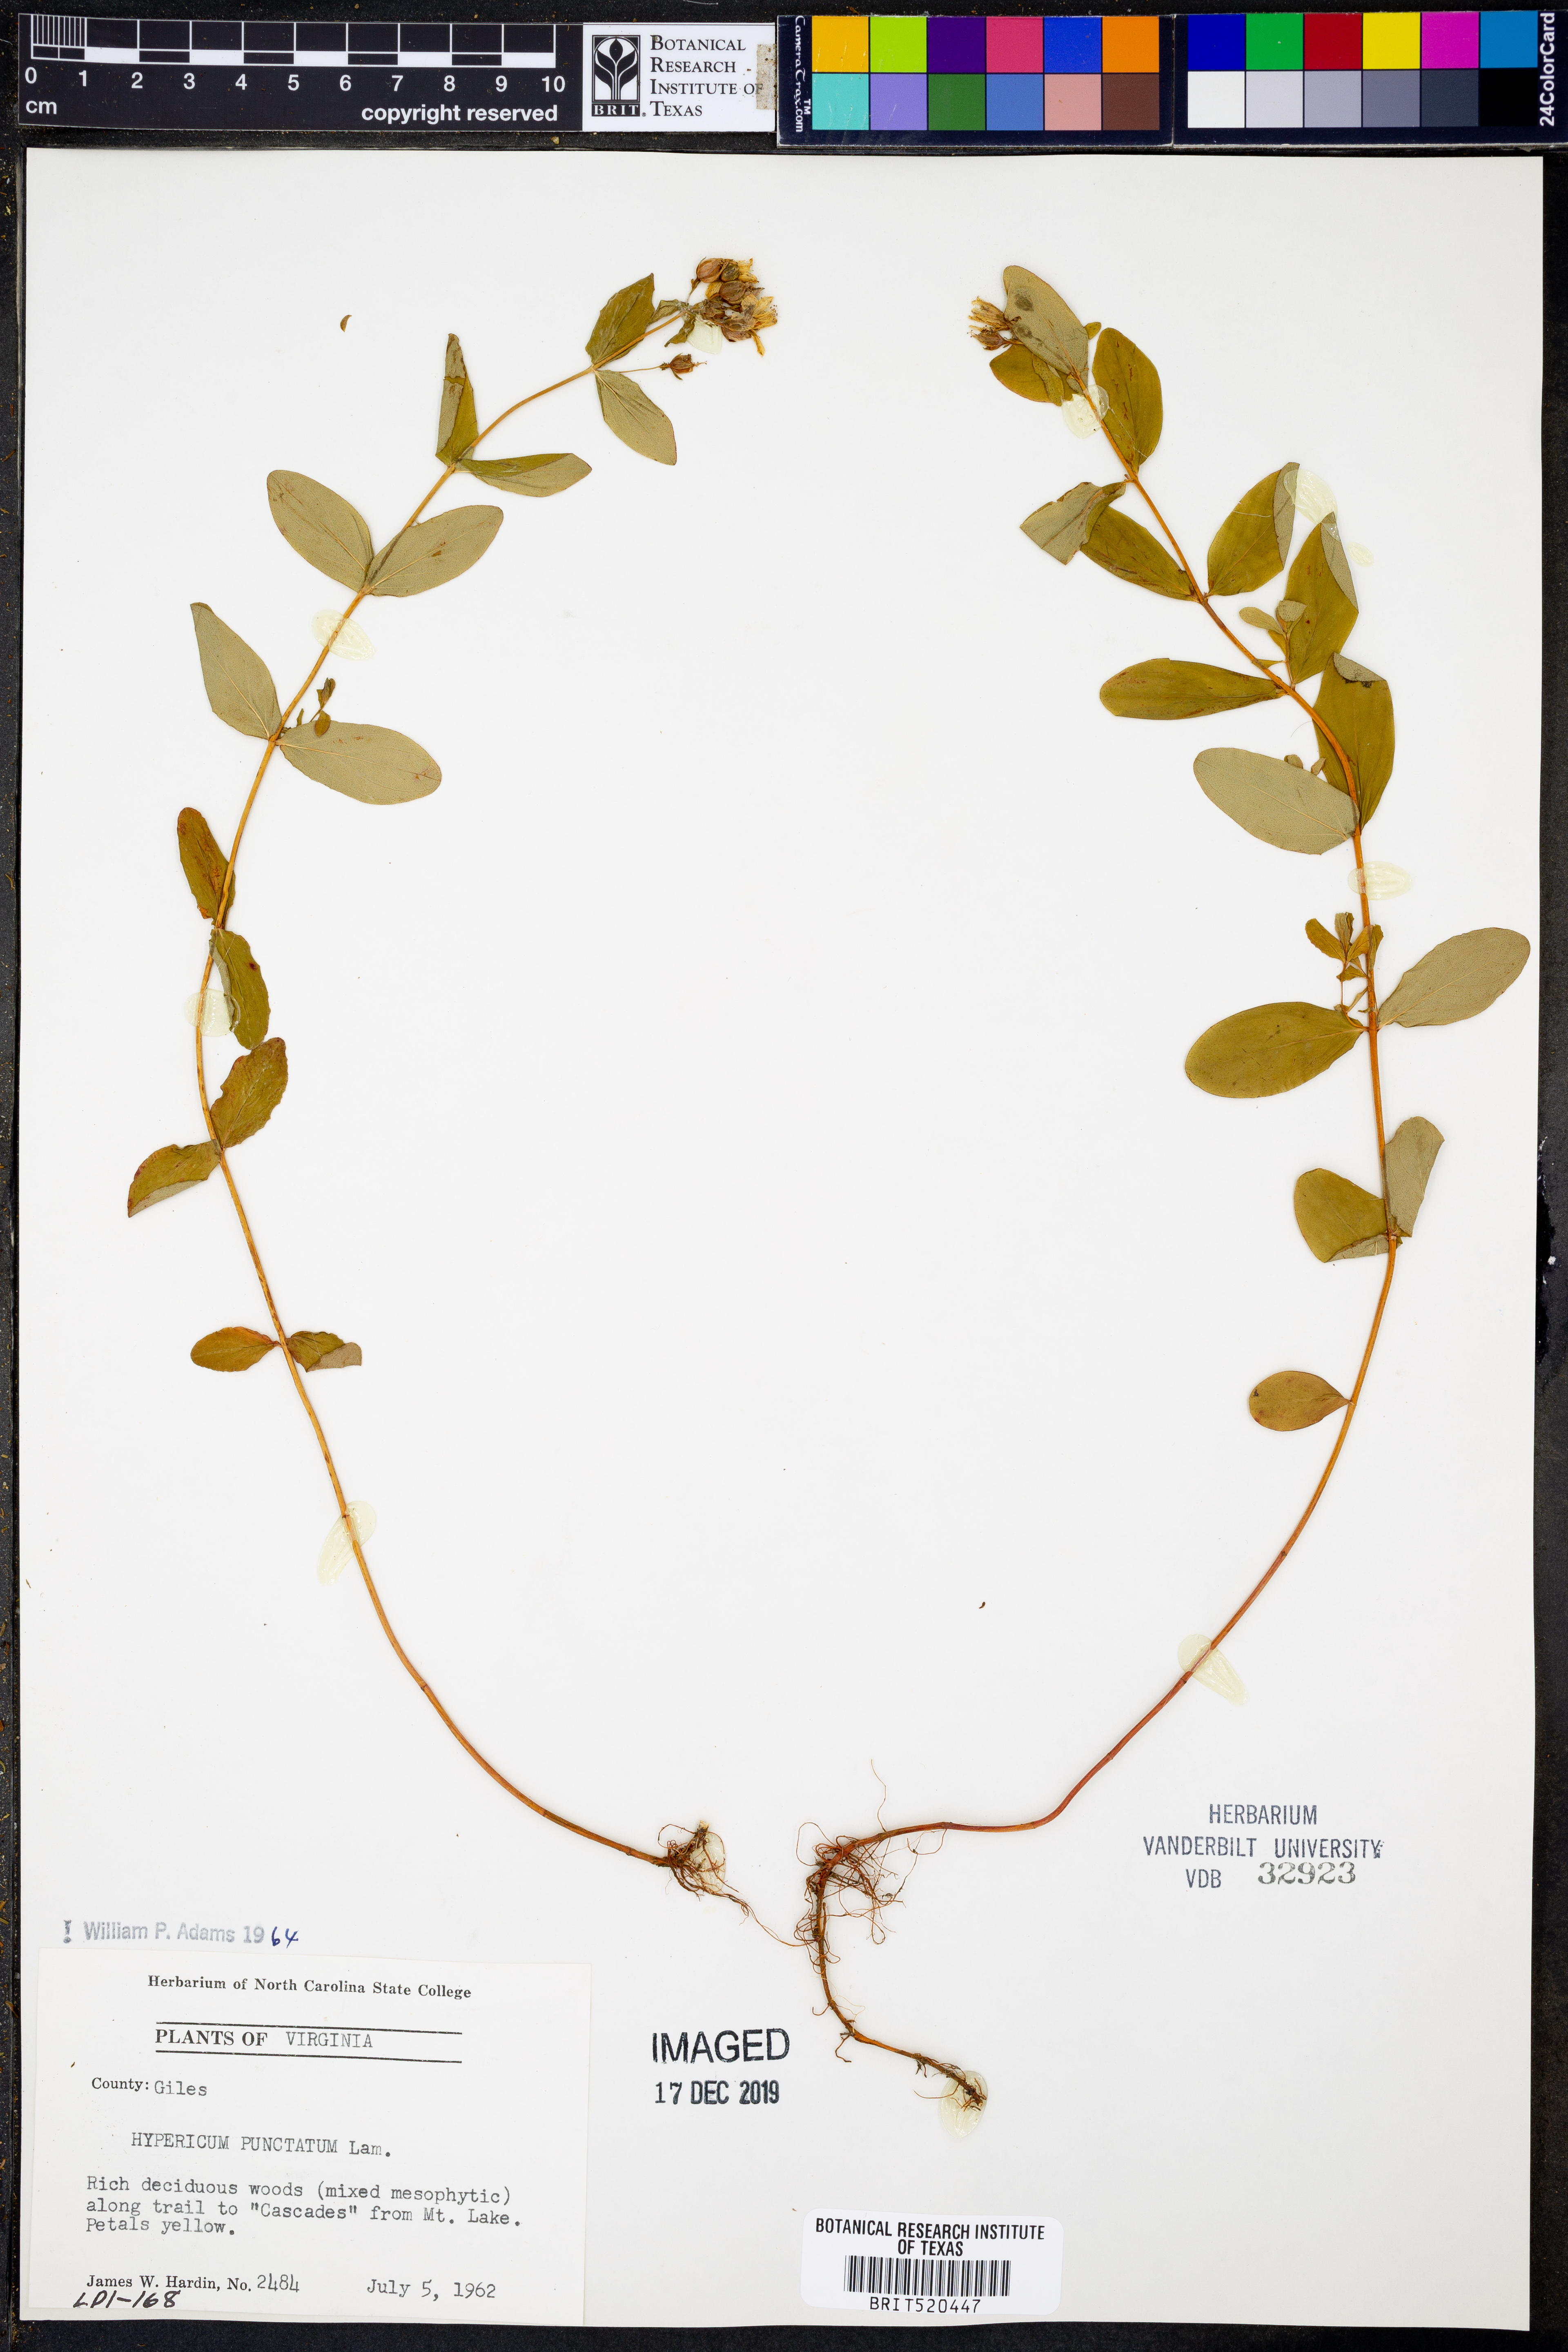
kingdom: Plantae
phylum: Tracheophyta
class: Magnoliopsida
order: Malpighiales
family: Hypericaceae
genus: Hypericum
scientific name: Hypericum punctatum
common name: Spotted st. john's-wort
